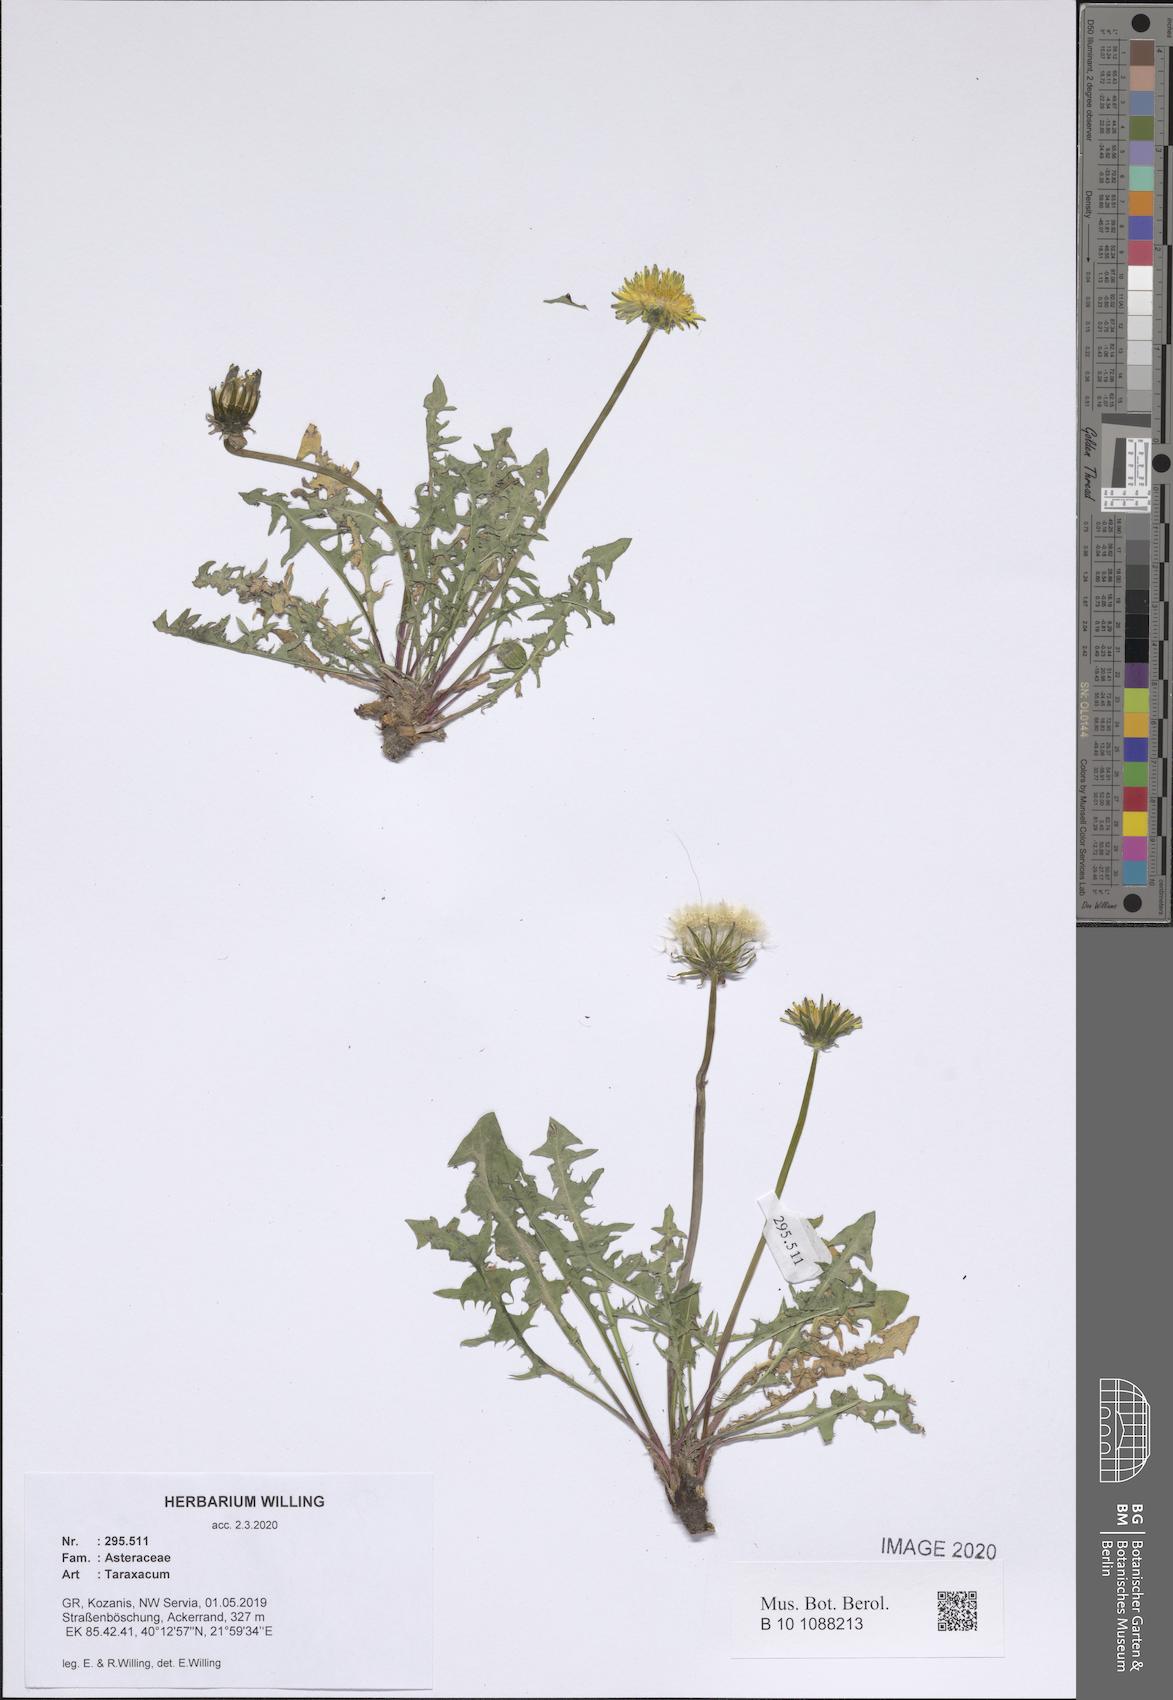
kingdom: Plantae
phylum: Tracheophyta
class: Magnoliopsida
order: Asterales
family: Asteraceae
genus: Taraxacum
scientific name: Taraxacum
